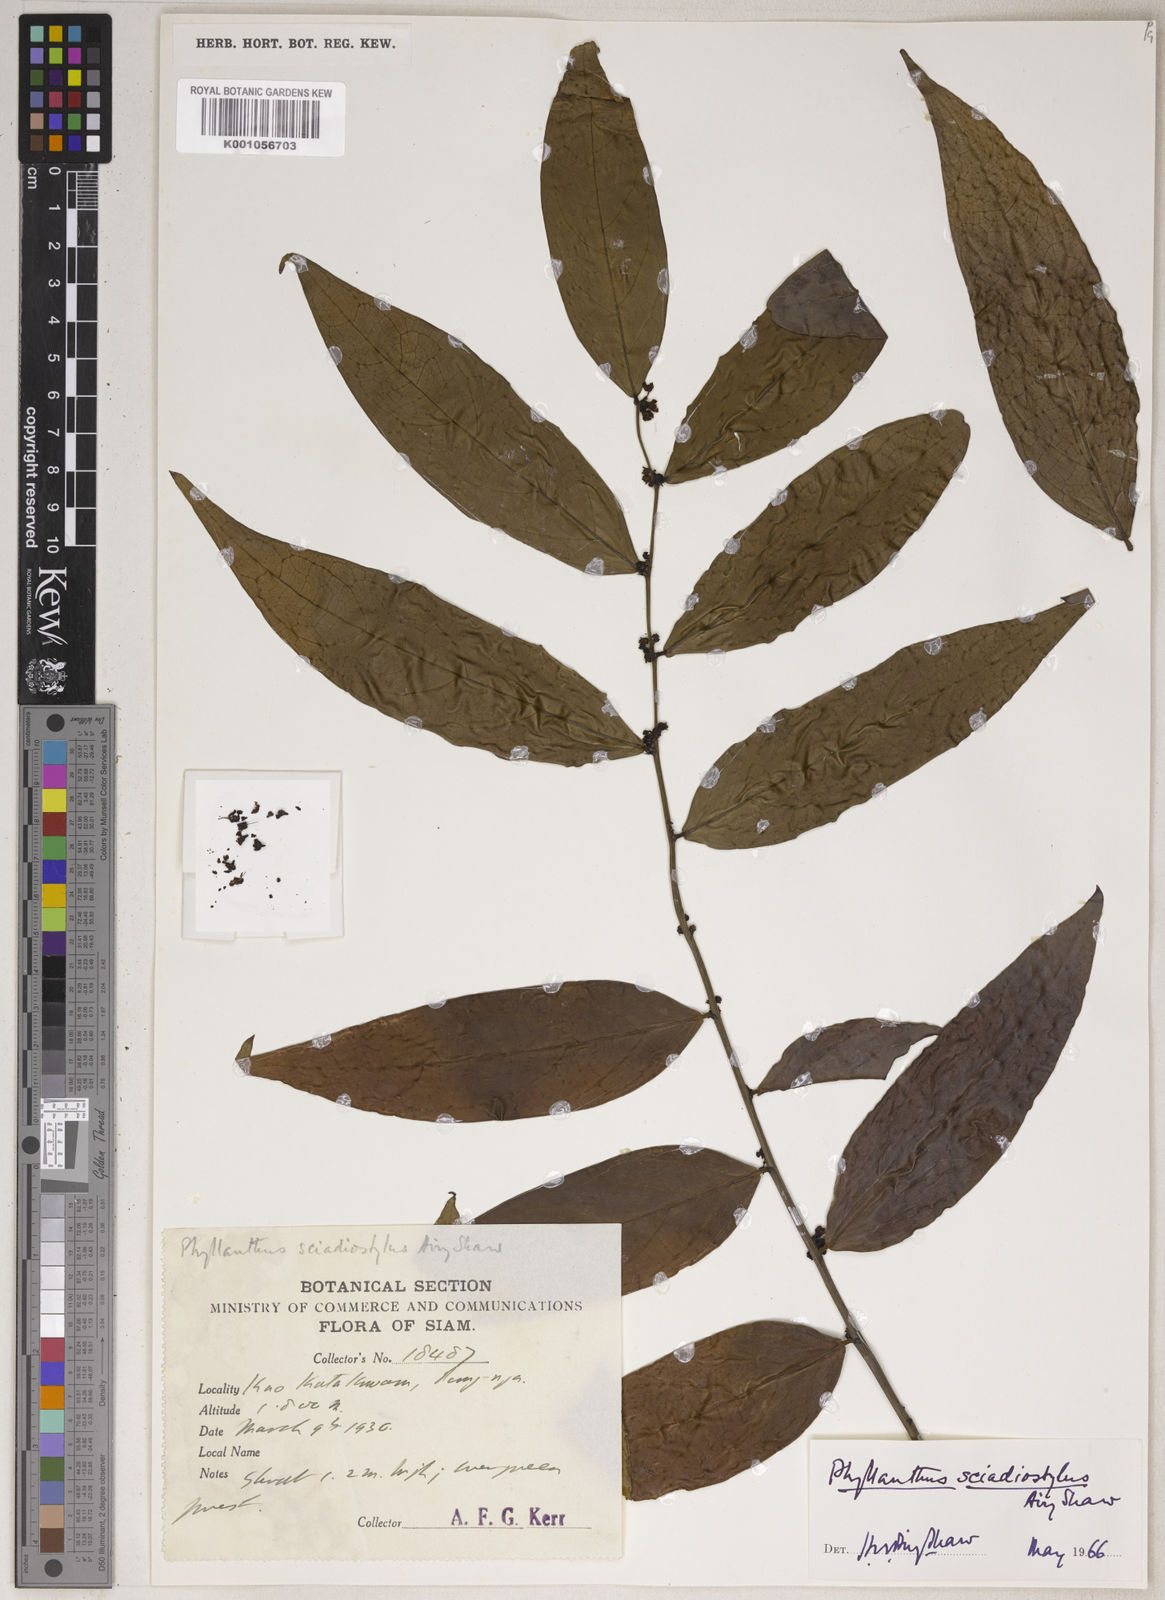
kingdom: Plantae
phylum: Tracheophyta
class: Magnoliopsida
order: Malpighiales
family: Phyllanthaceae
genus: Phyllanthus
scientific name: Phyllanthus
